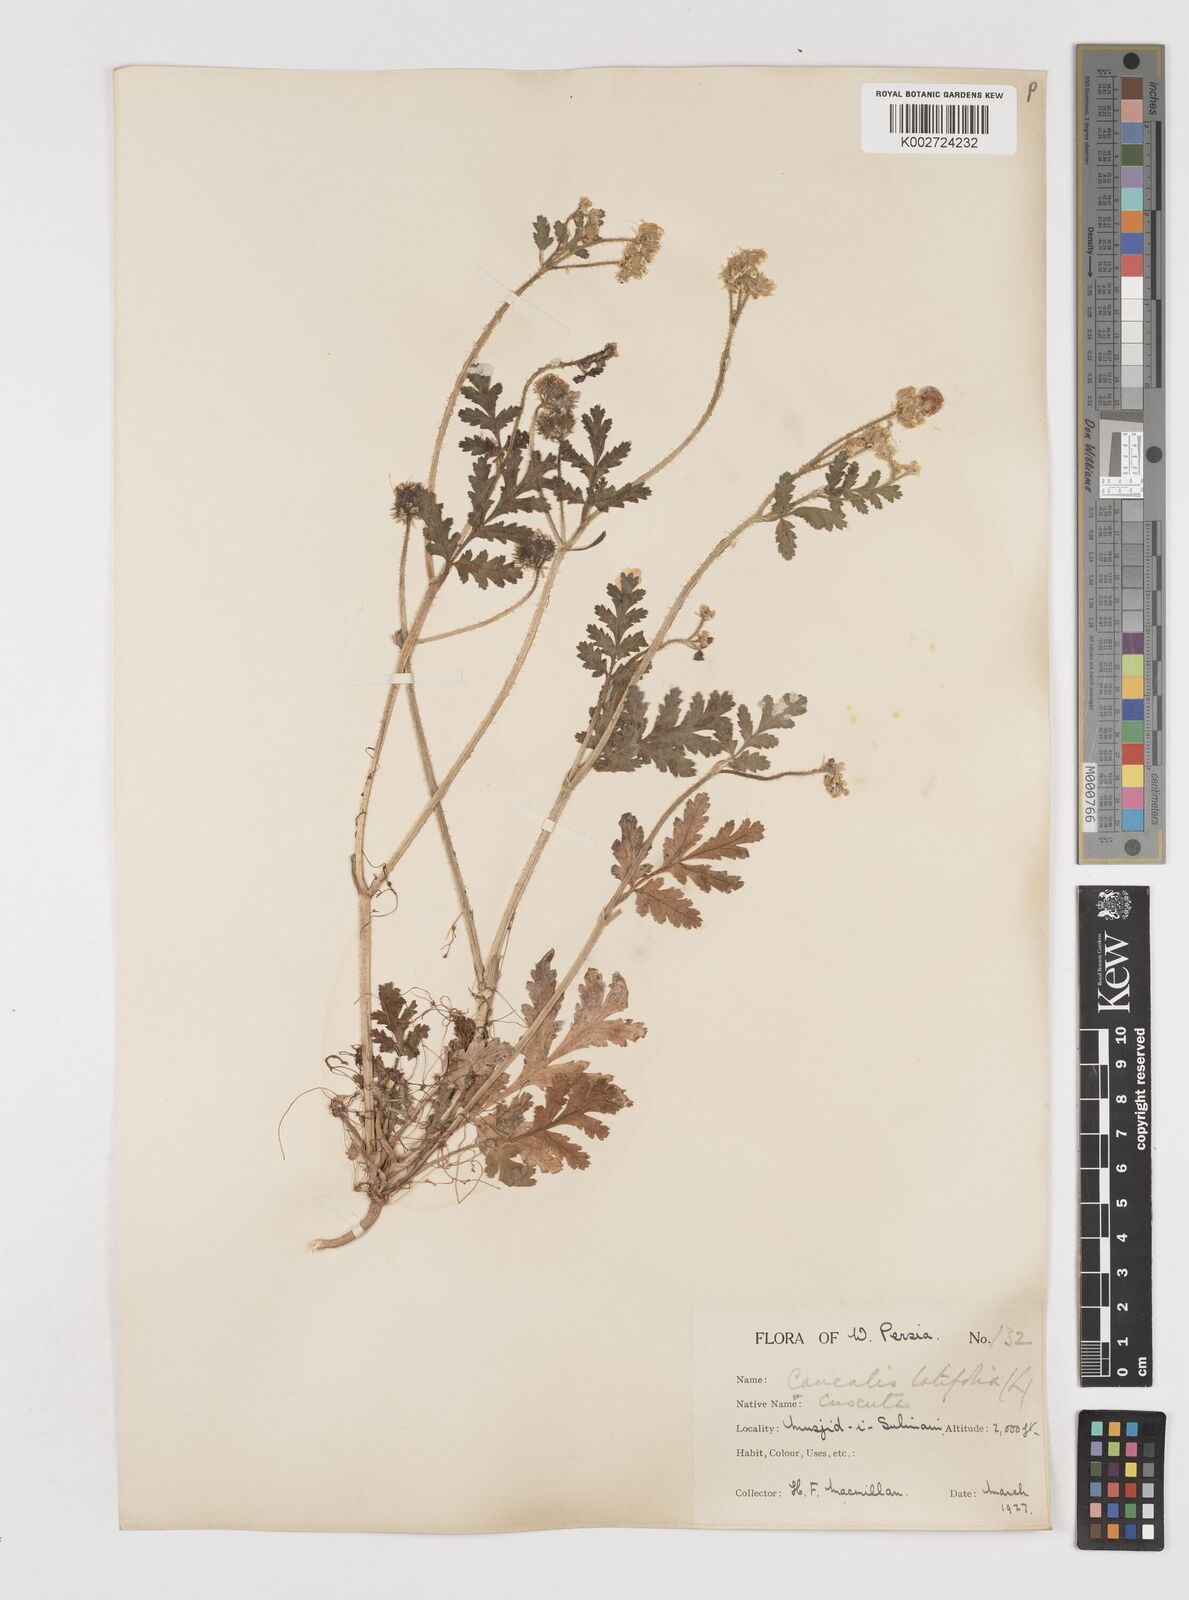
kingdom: Plantae
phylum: Tracheophyta
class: Magnoliopsida
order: Apiales
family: Apiaceae
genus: Turgenia
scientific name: Turgenia latifolia
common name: Greater bur-parsley
